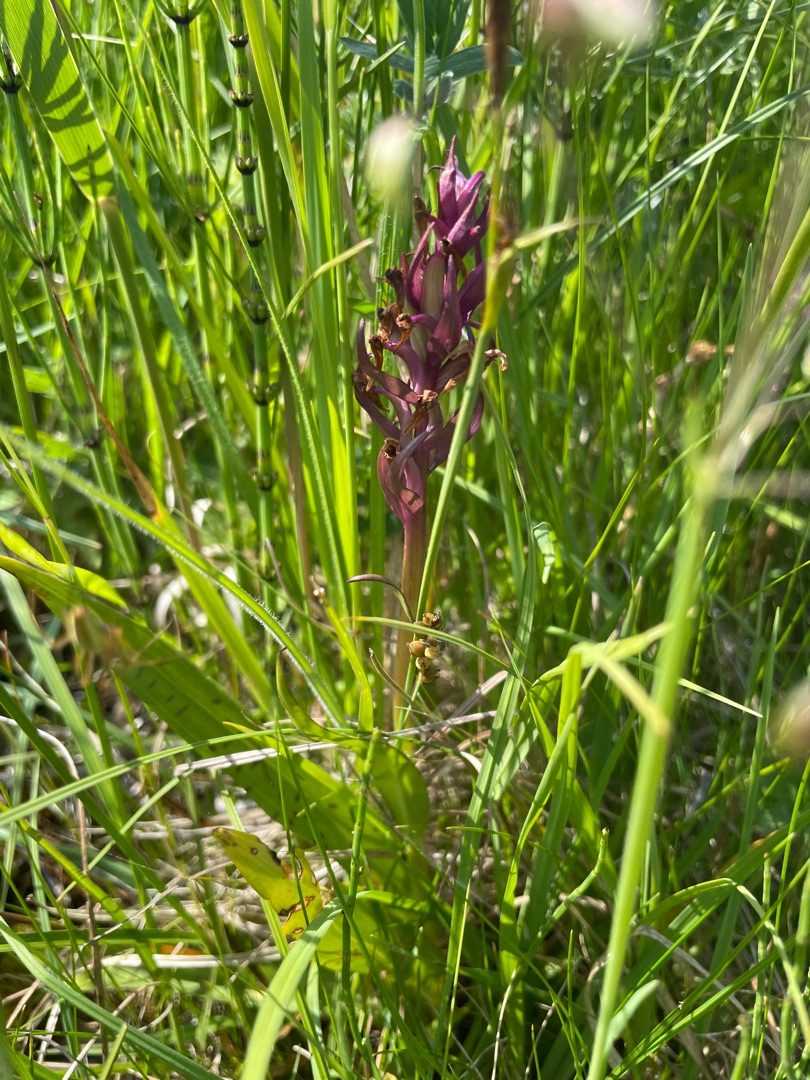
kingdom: Plantae
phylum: Tracheophyta
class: Liliopsida
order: Asparagales
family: Orchidaceae
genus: Dactylorhiza
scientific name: Dactylorhiza majalis
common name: Maj-gøgeurt
